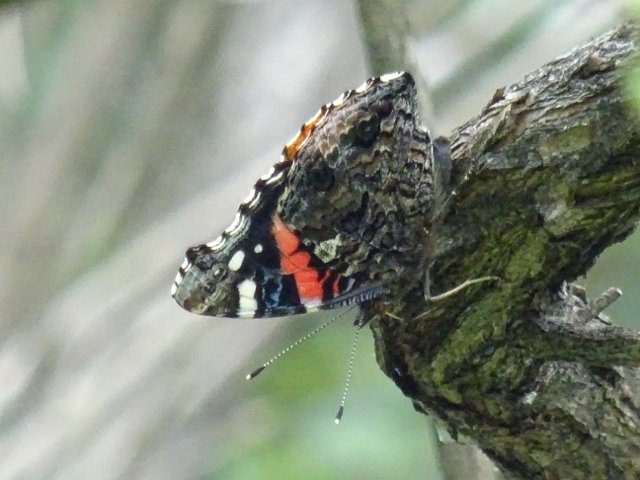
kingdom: Animalia
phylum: Arthropoda
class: Insecta
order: Lepidoptera
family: Nymphalidae
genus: Vanessa
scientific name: Vanessa atalanta
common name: Red Admiral
